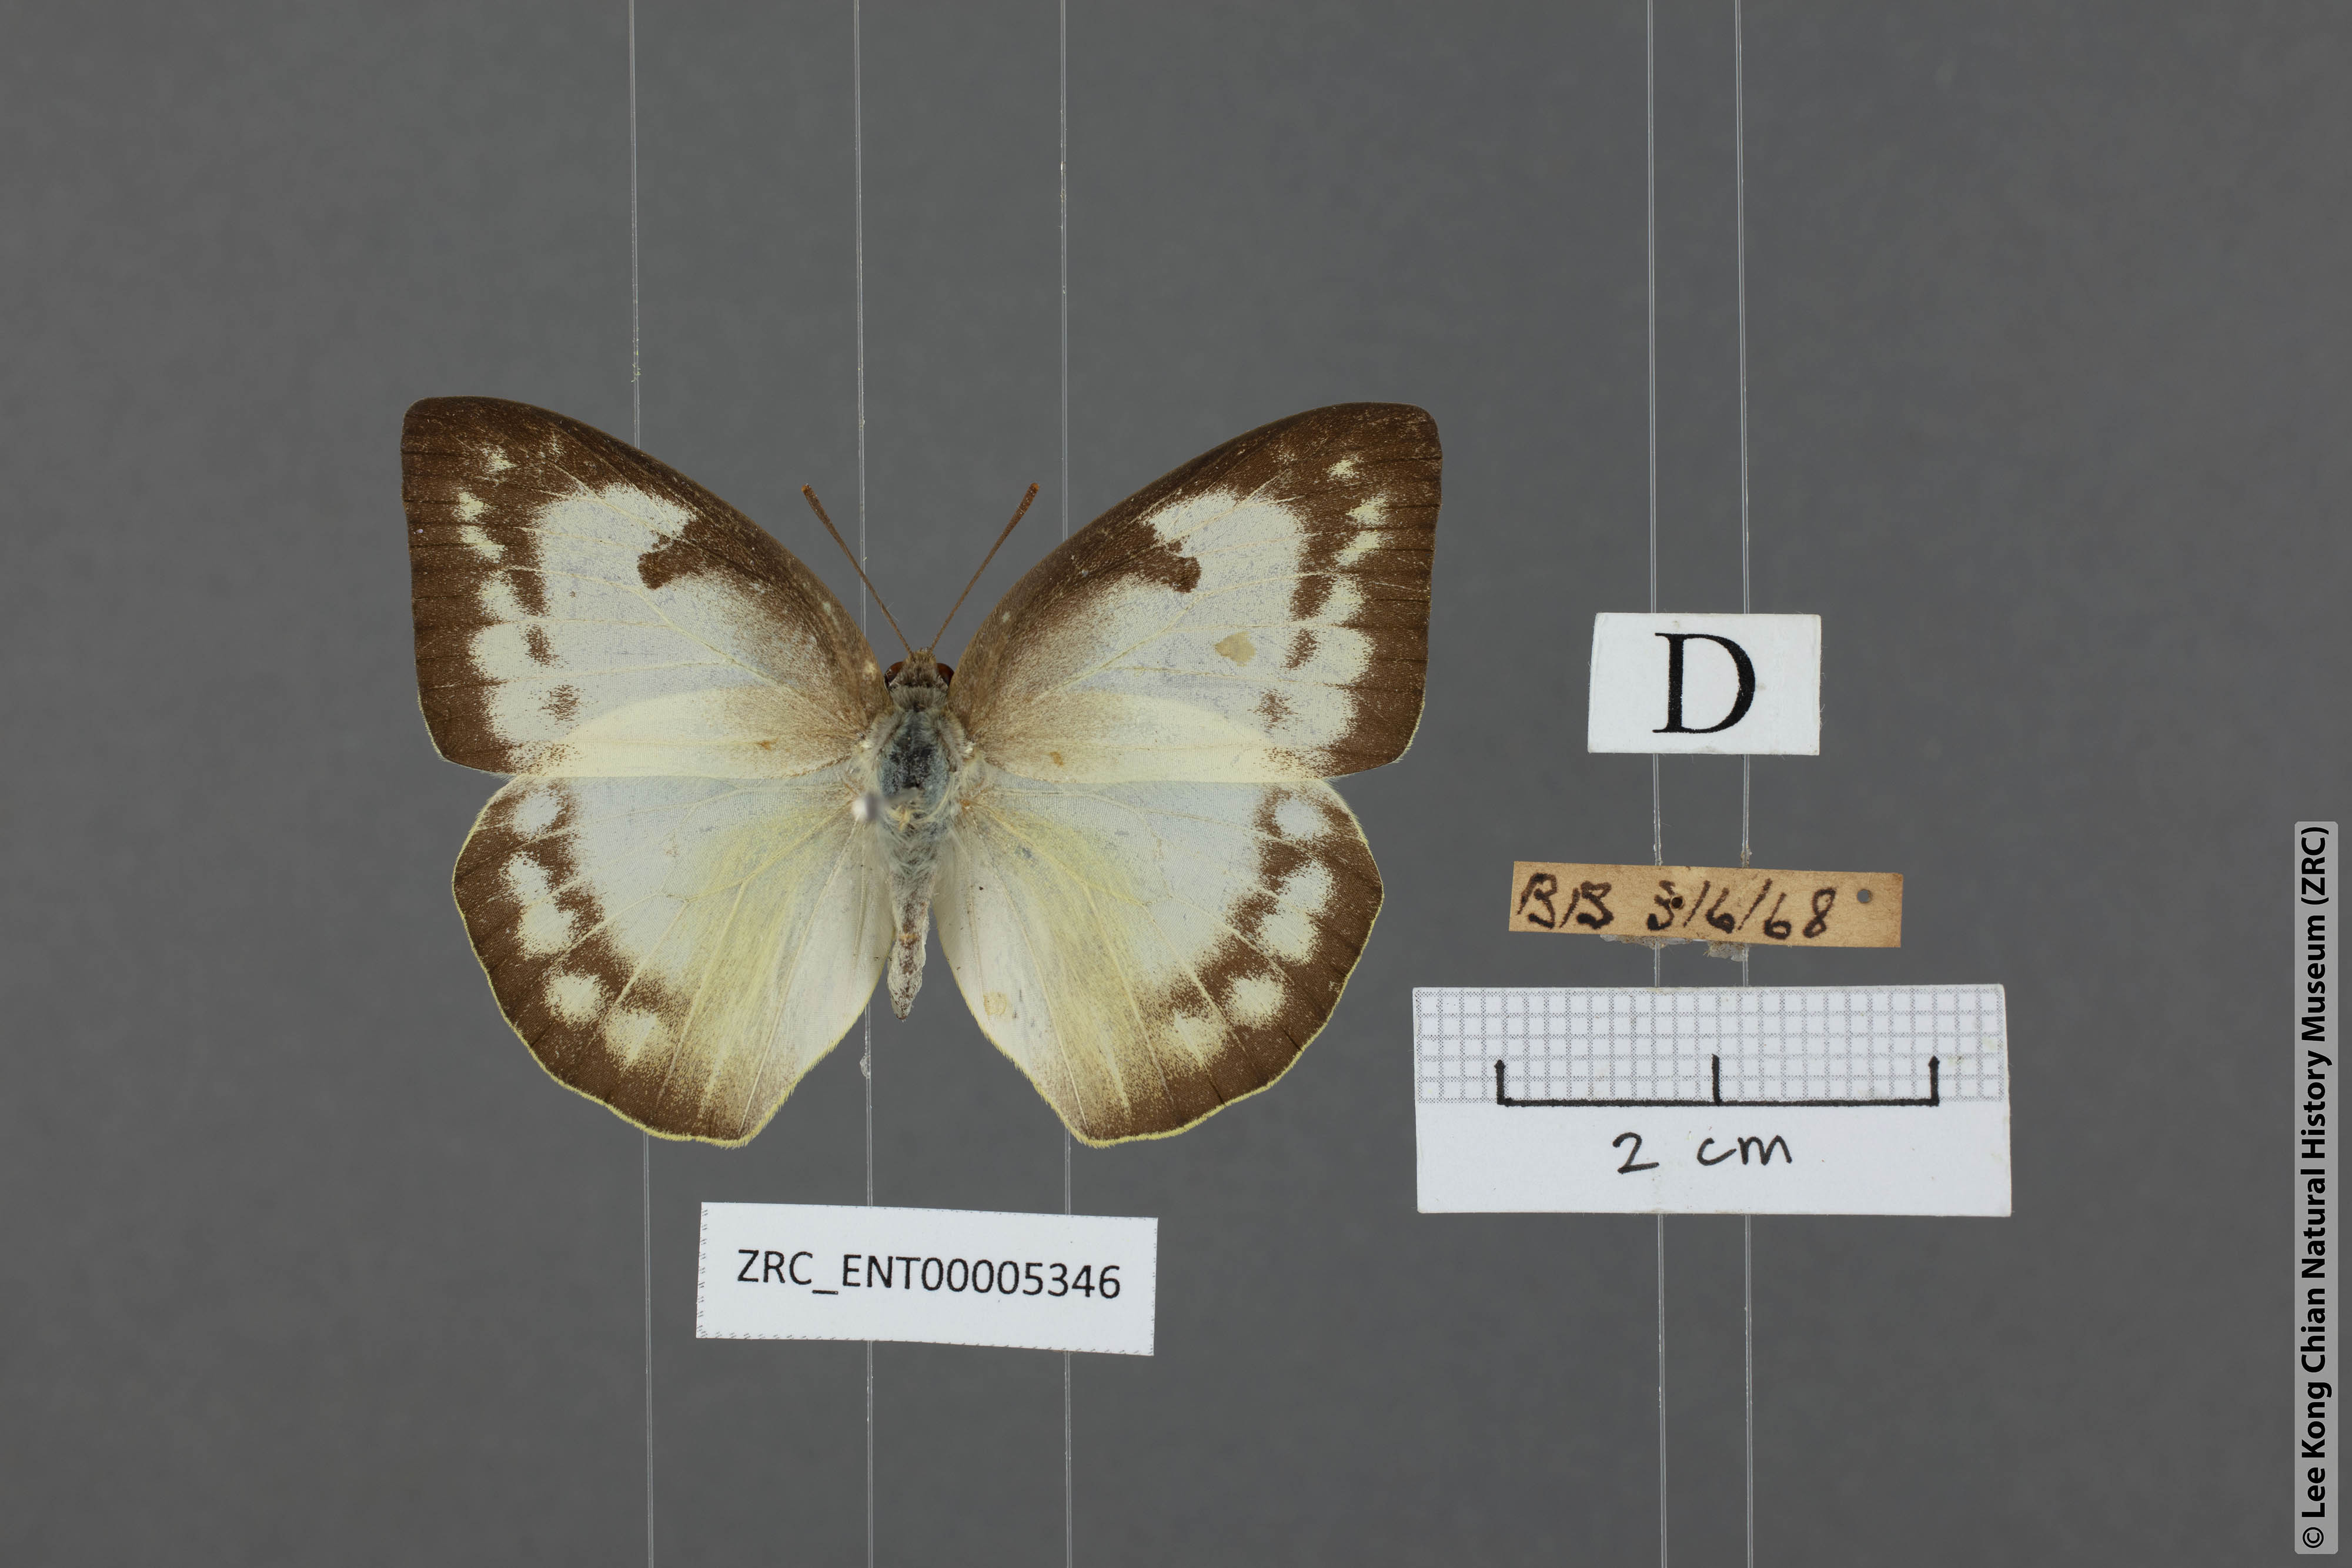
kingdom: Animalia
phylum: Arthropoda
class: Insecta
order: Lepidoptera
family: Pieridae
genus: Catopsilia
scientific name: Catopsilia pomona
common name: Common emigrant
